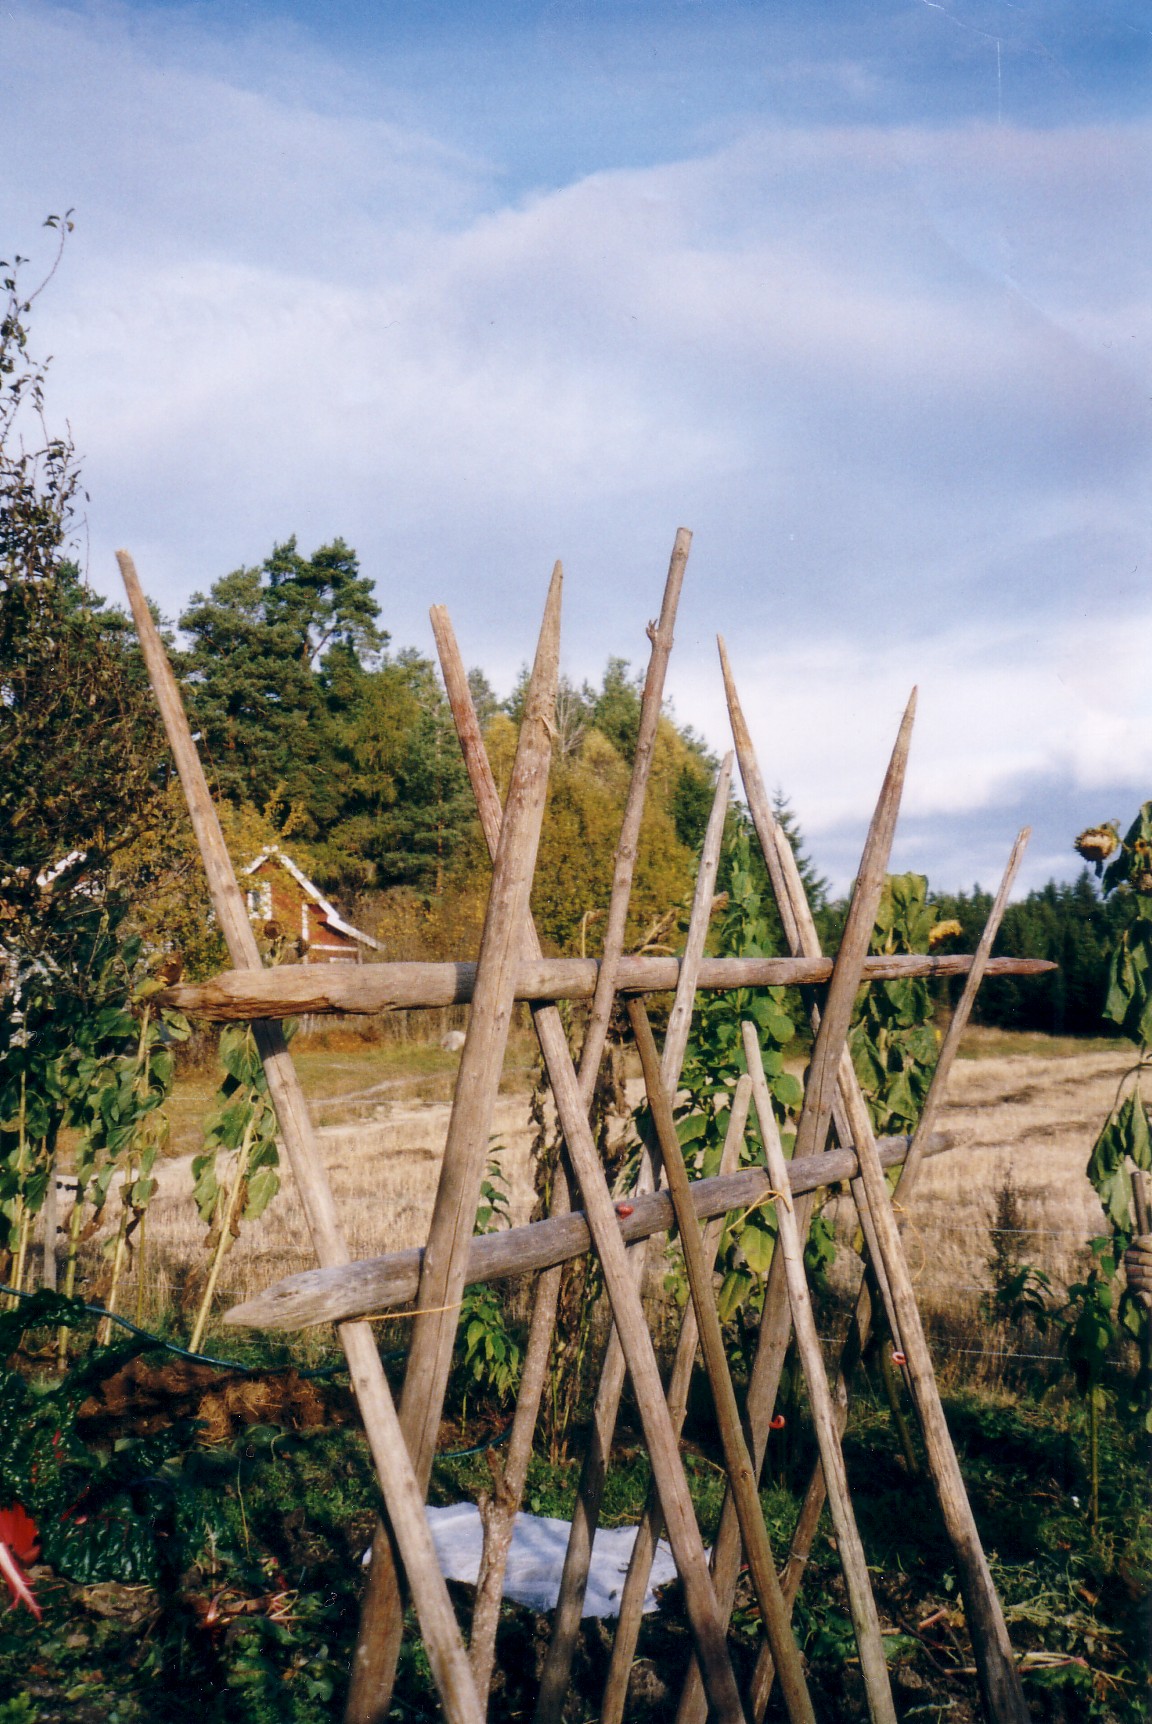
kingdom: Plantae
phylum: Tracheophyta
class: Magnoliopsida
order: Fabales
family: Fabaceae
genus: Phaseolus
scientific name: Phaseolus vulgaris
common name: Bean
